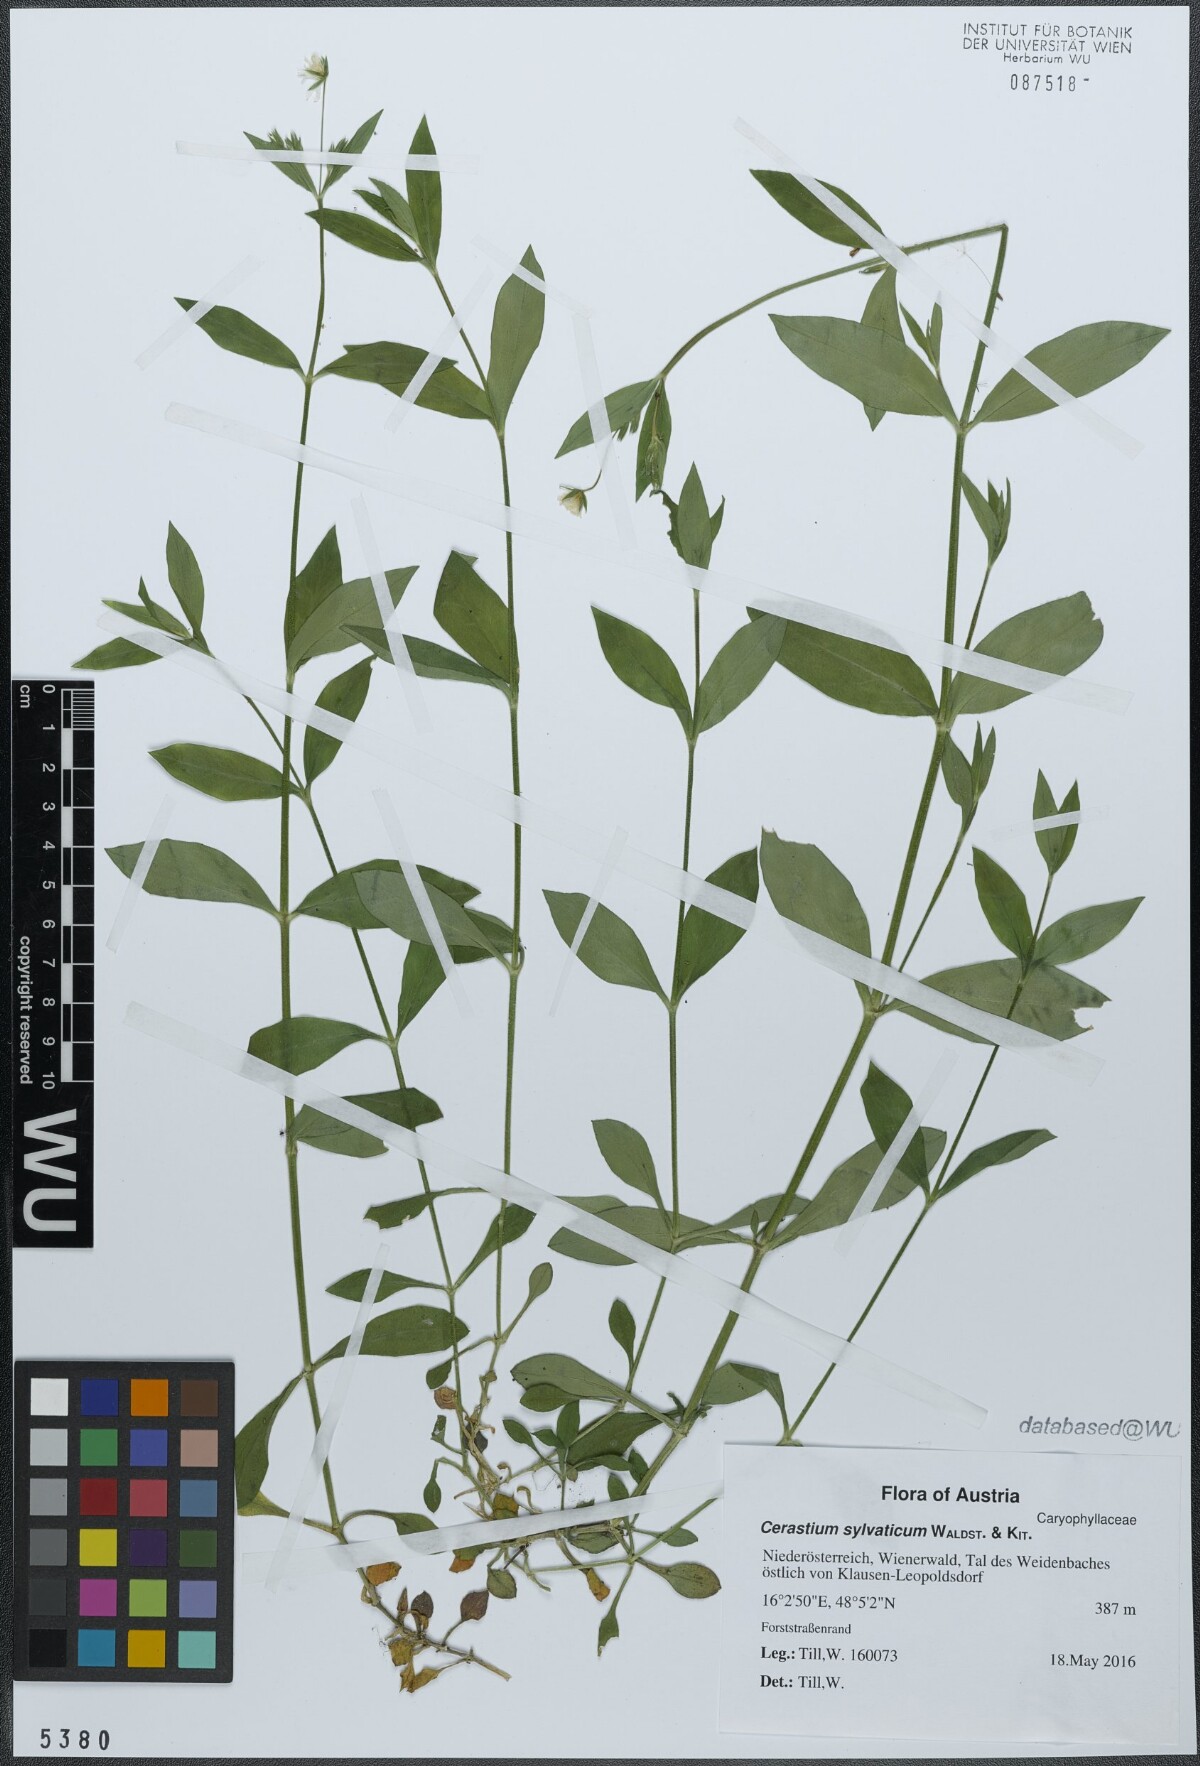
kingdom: Plantae
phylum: Tracheophyta
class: Magnoliopsida
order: Caryophyllales
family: Caryophyllaceae
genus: Cerastium
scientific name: Cerastium sylvaticum
